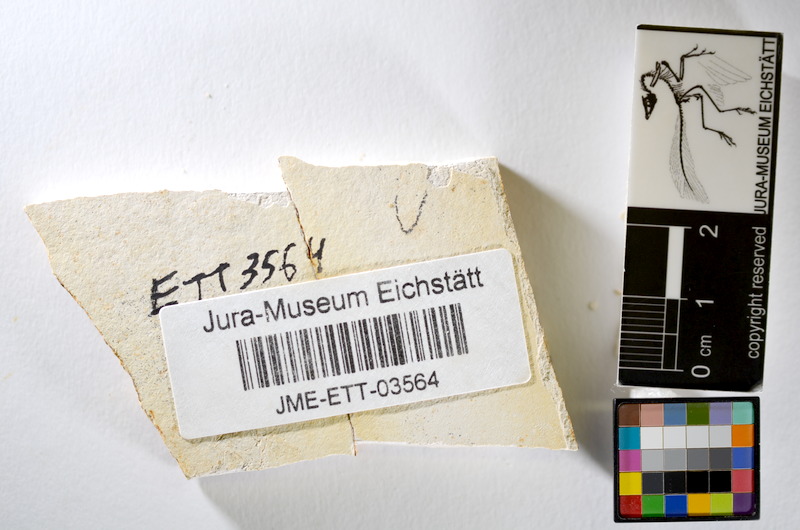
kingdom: Animalia
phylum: Chordata
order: Salmoniformes
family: Orthogonikleithridae
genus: Orthogonikleithrus
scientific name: Orthogonikleithrus hoelli
